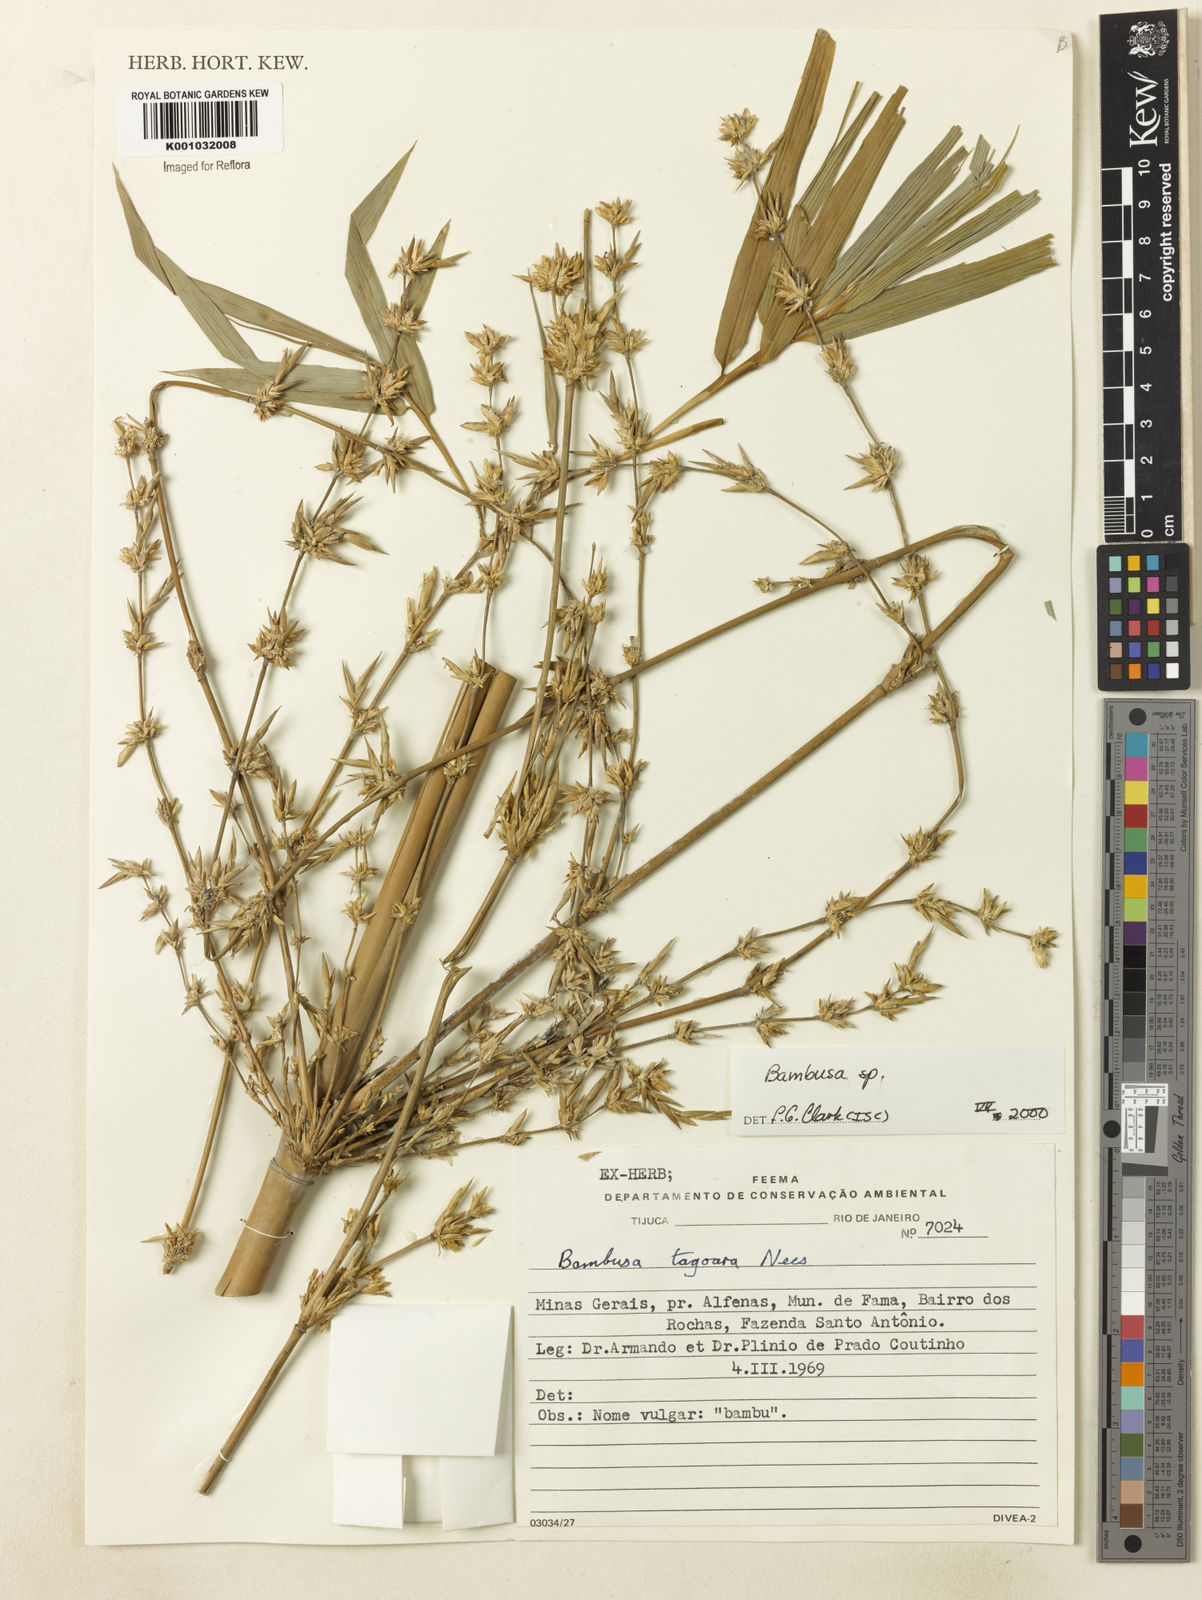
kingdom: Plantae
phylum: Tracheophyta
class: Liliopsida
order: Poales
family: Poaceae
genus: Bambusa
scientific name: Bambusa
